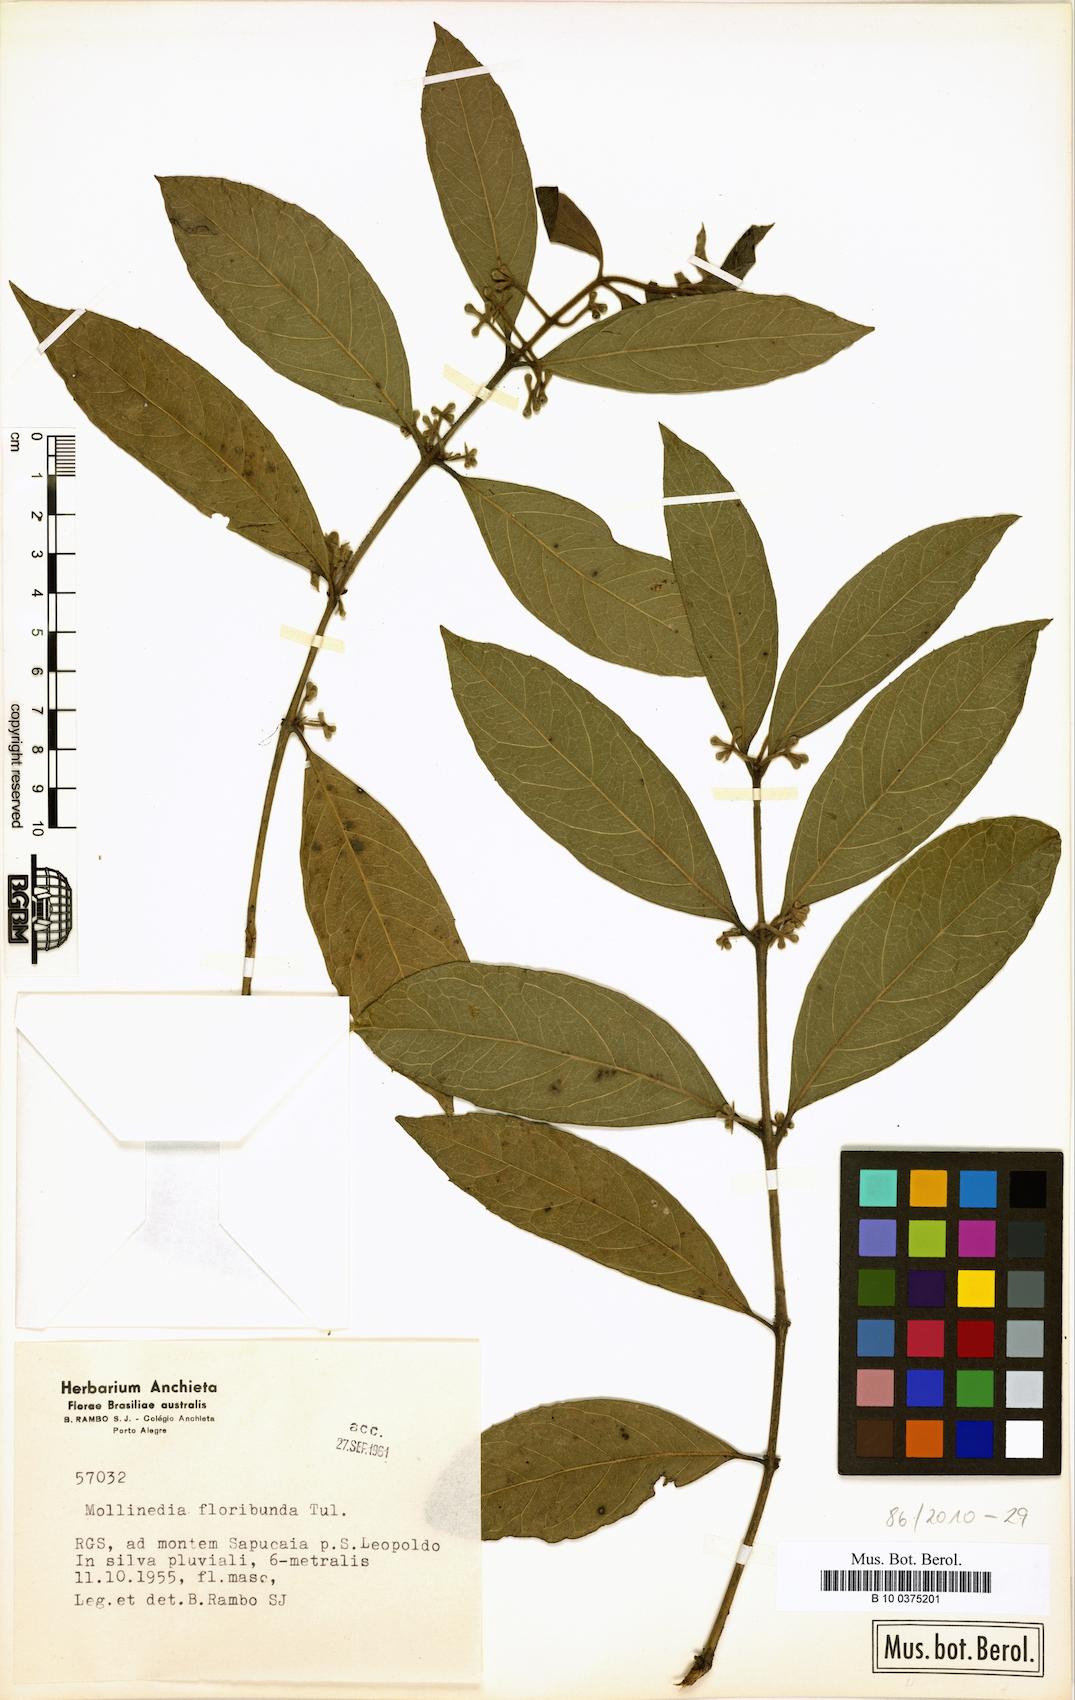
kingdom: Plantae
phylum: Tracheophyta
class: Magnoliopsida
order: Laurales
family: Monimiaceae
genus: Mollinedia
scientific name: Mollinedia umbellata
